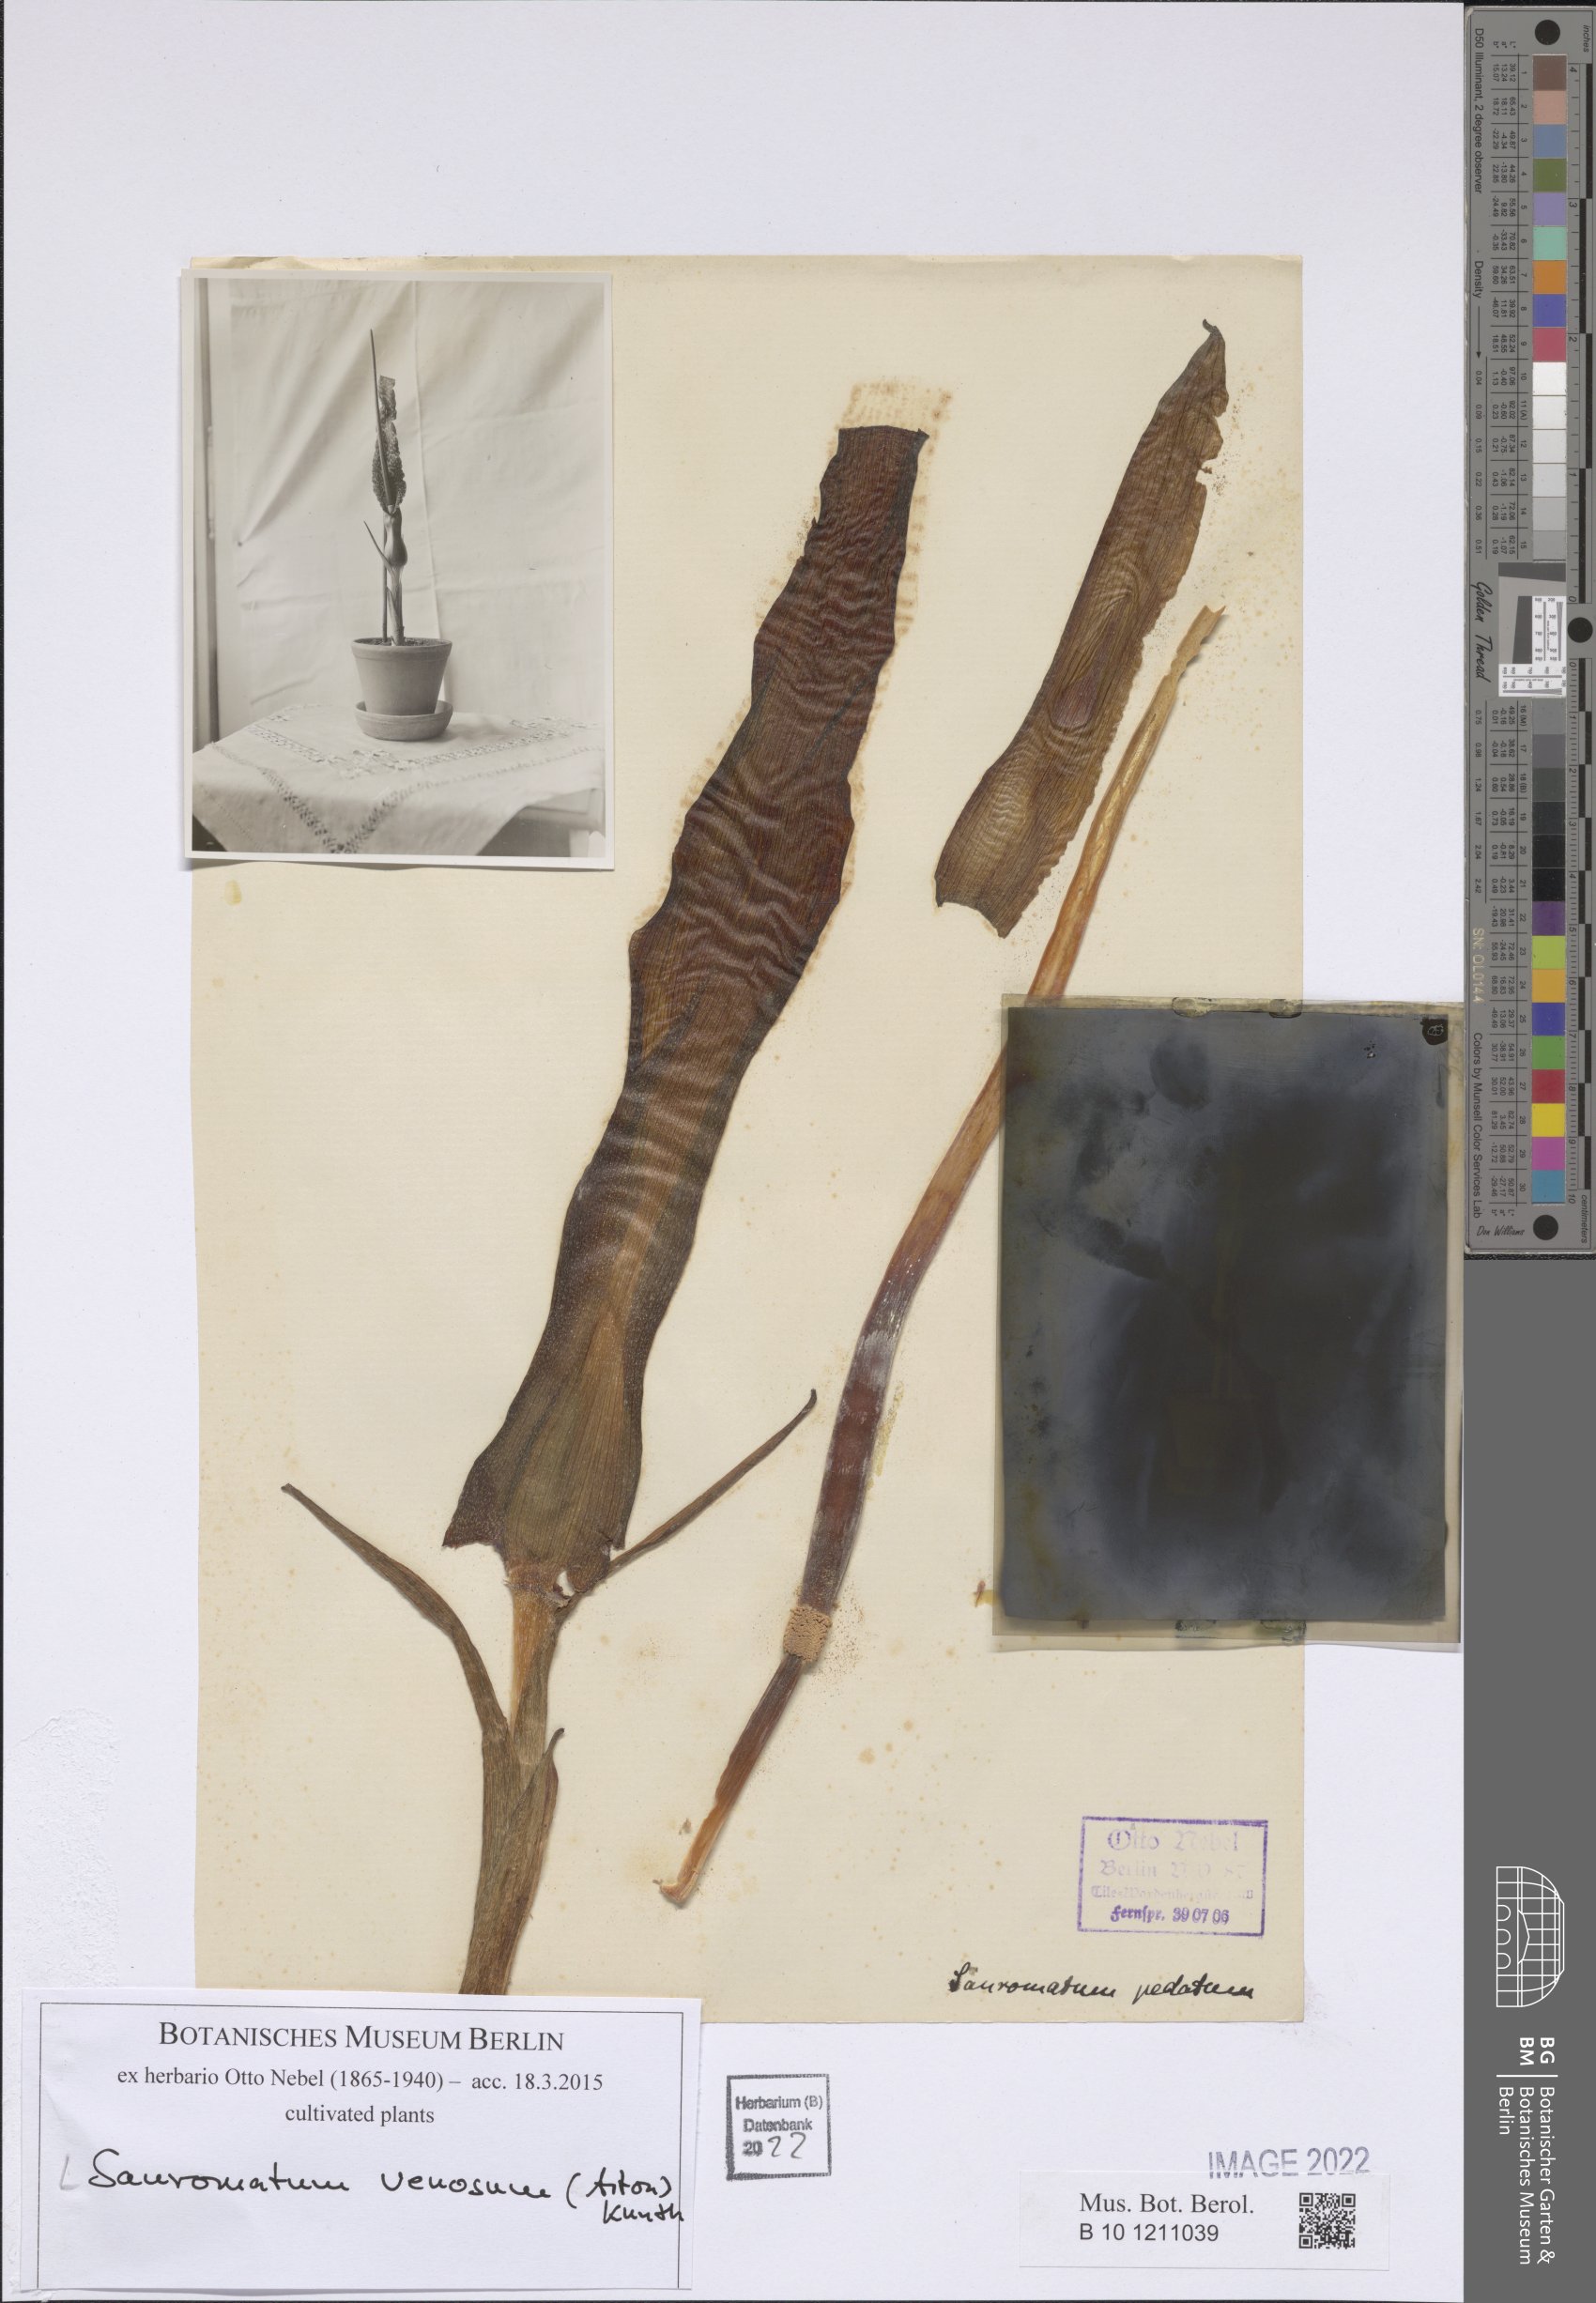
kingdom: Plantae
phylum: Tracheophyta
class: Liliopsida
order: Alismatales
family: Araceae
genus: Sauromatum
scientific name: Sauromatum venosum
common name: Voodoo lily
